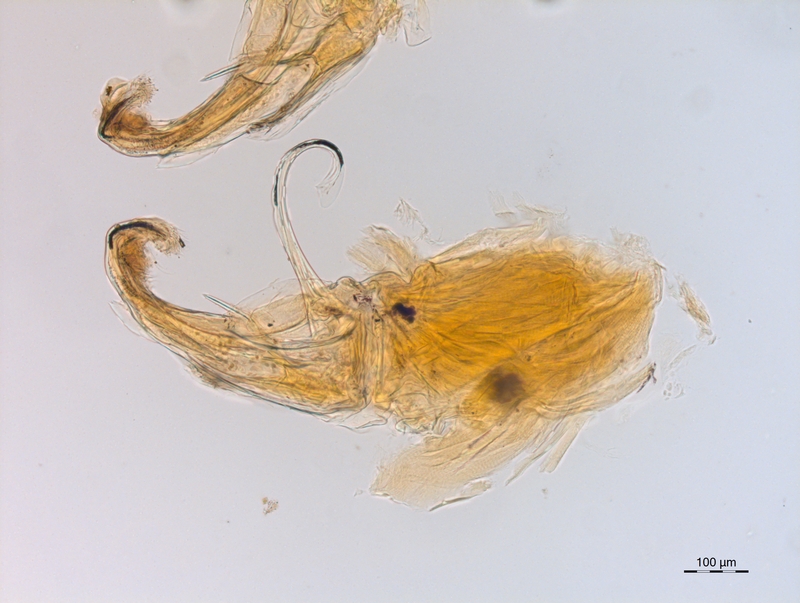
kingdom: Animalia
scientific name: Animalia
